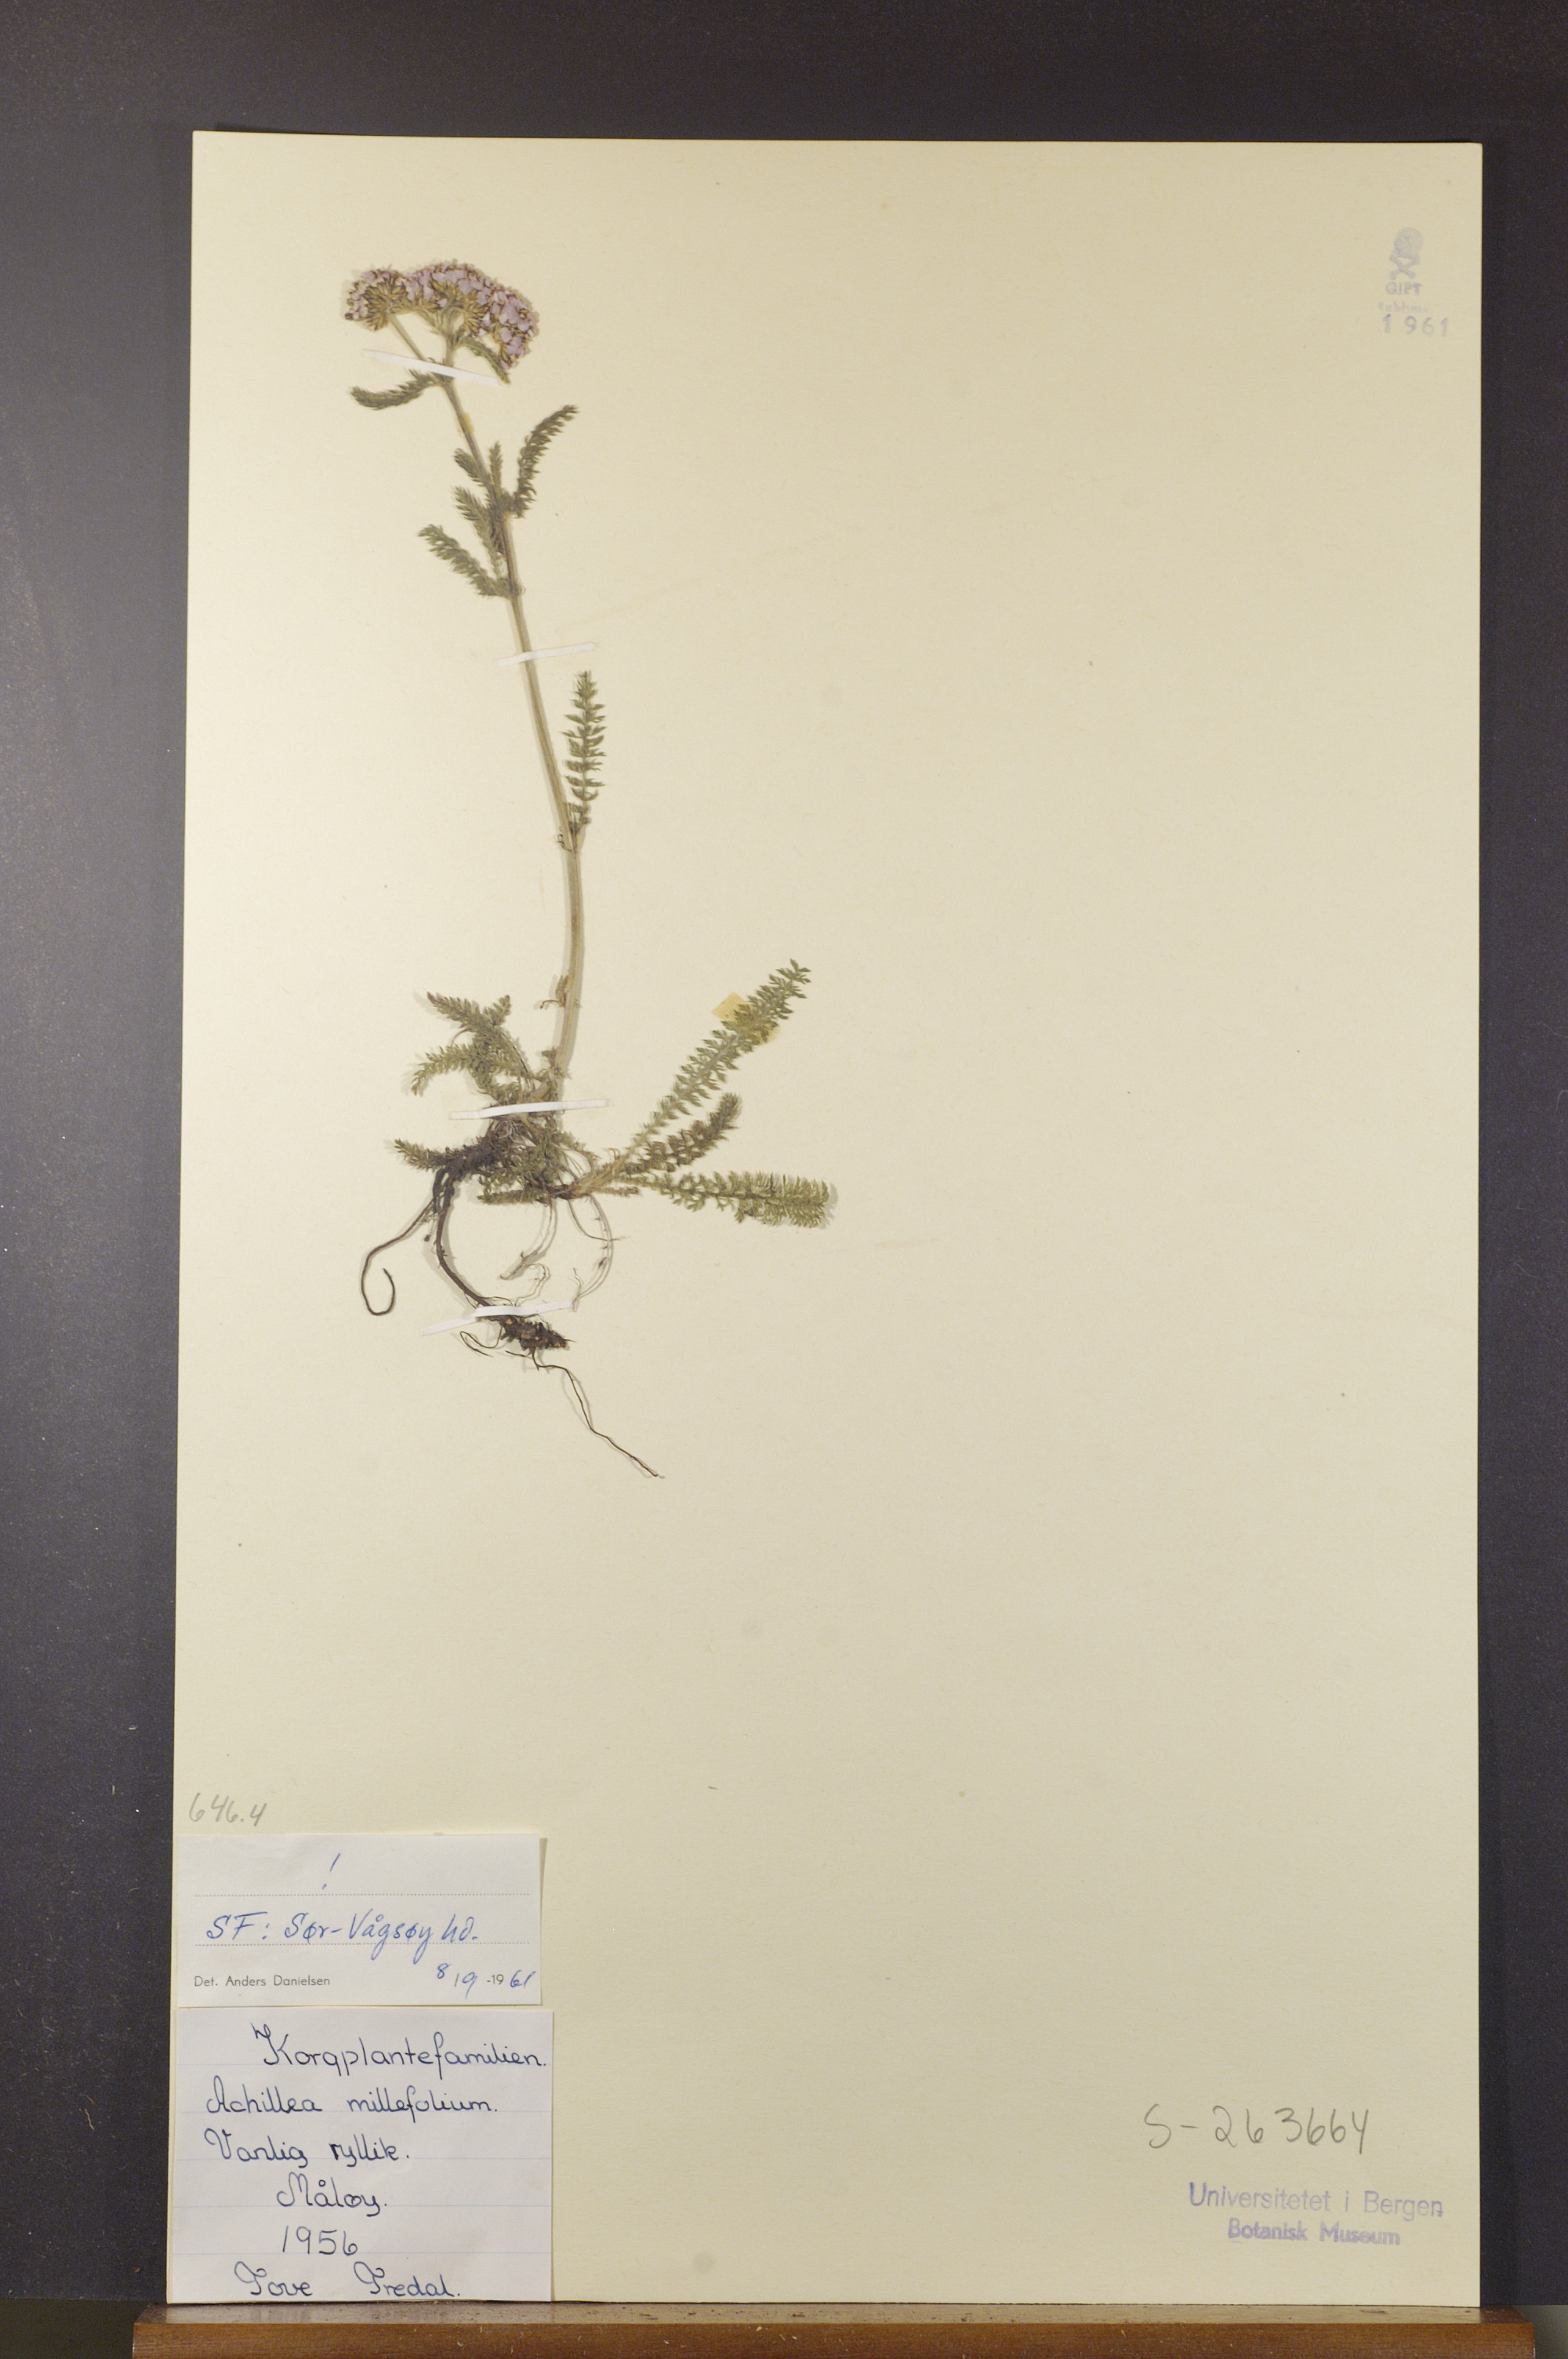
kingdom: Plantae
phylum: Tracheophyta
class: Magnoliopsida
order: Asterales
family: Asteraceae
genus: Achillea
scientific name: Achillea millefolium
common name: Yarrow
